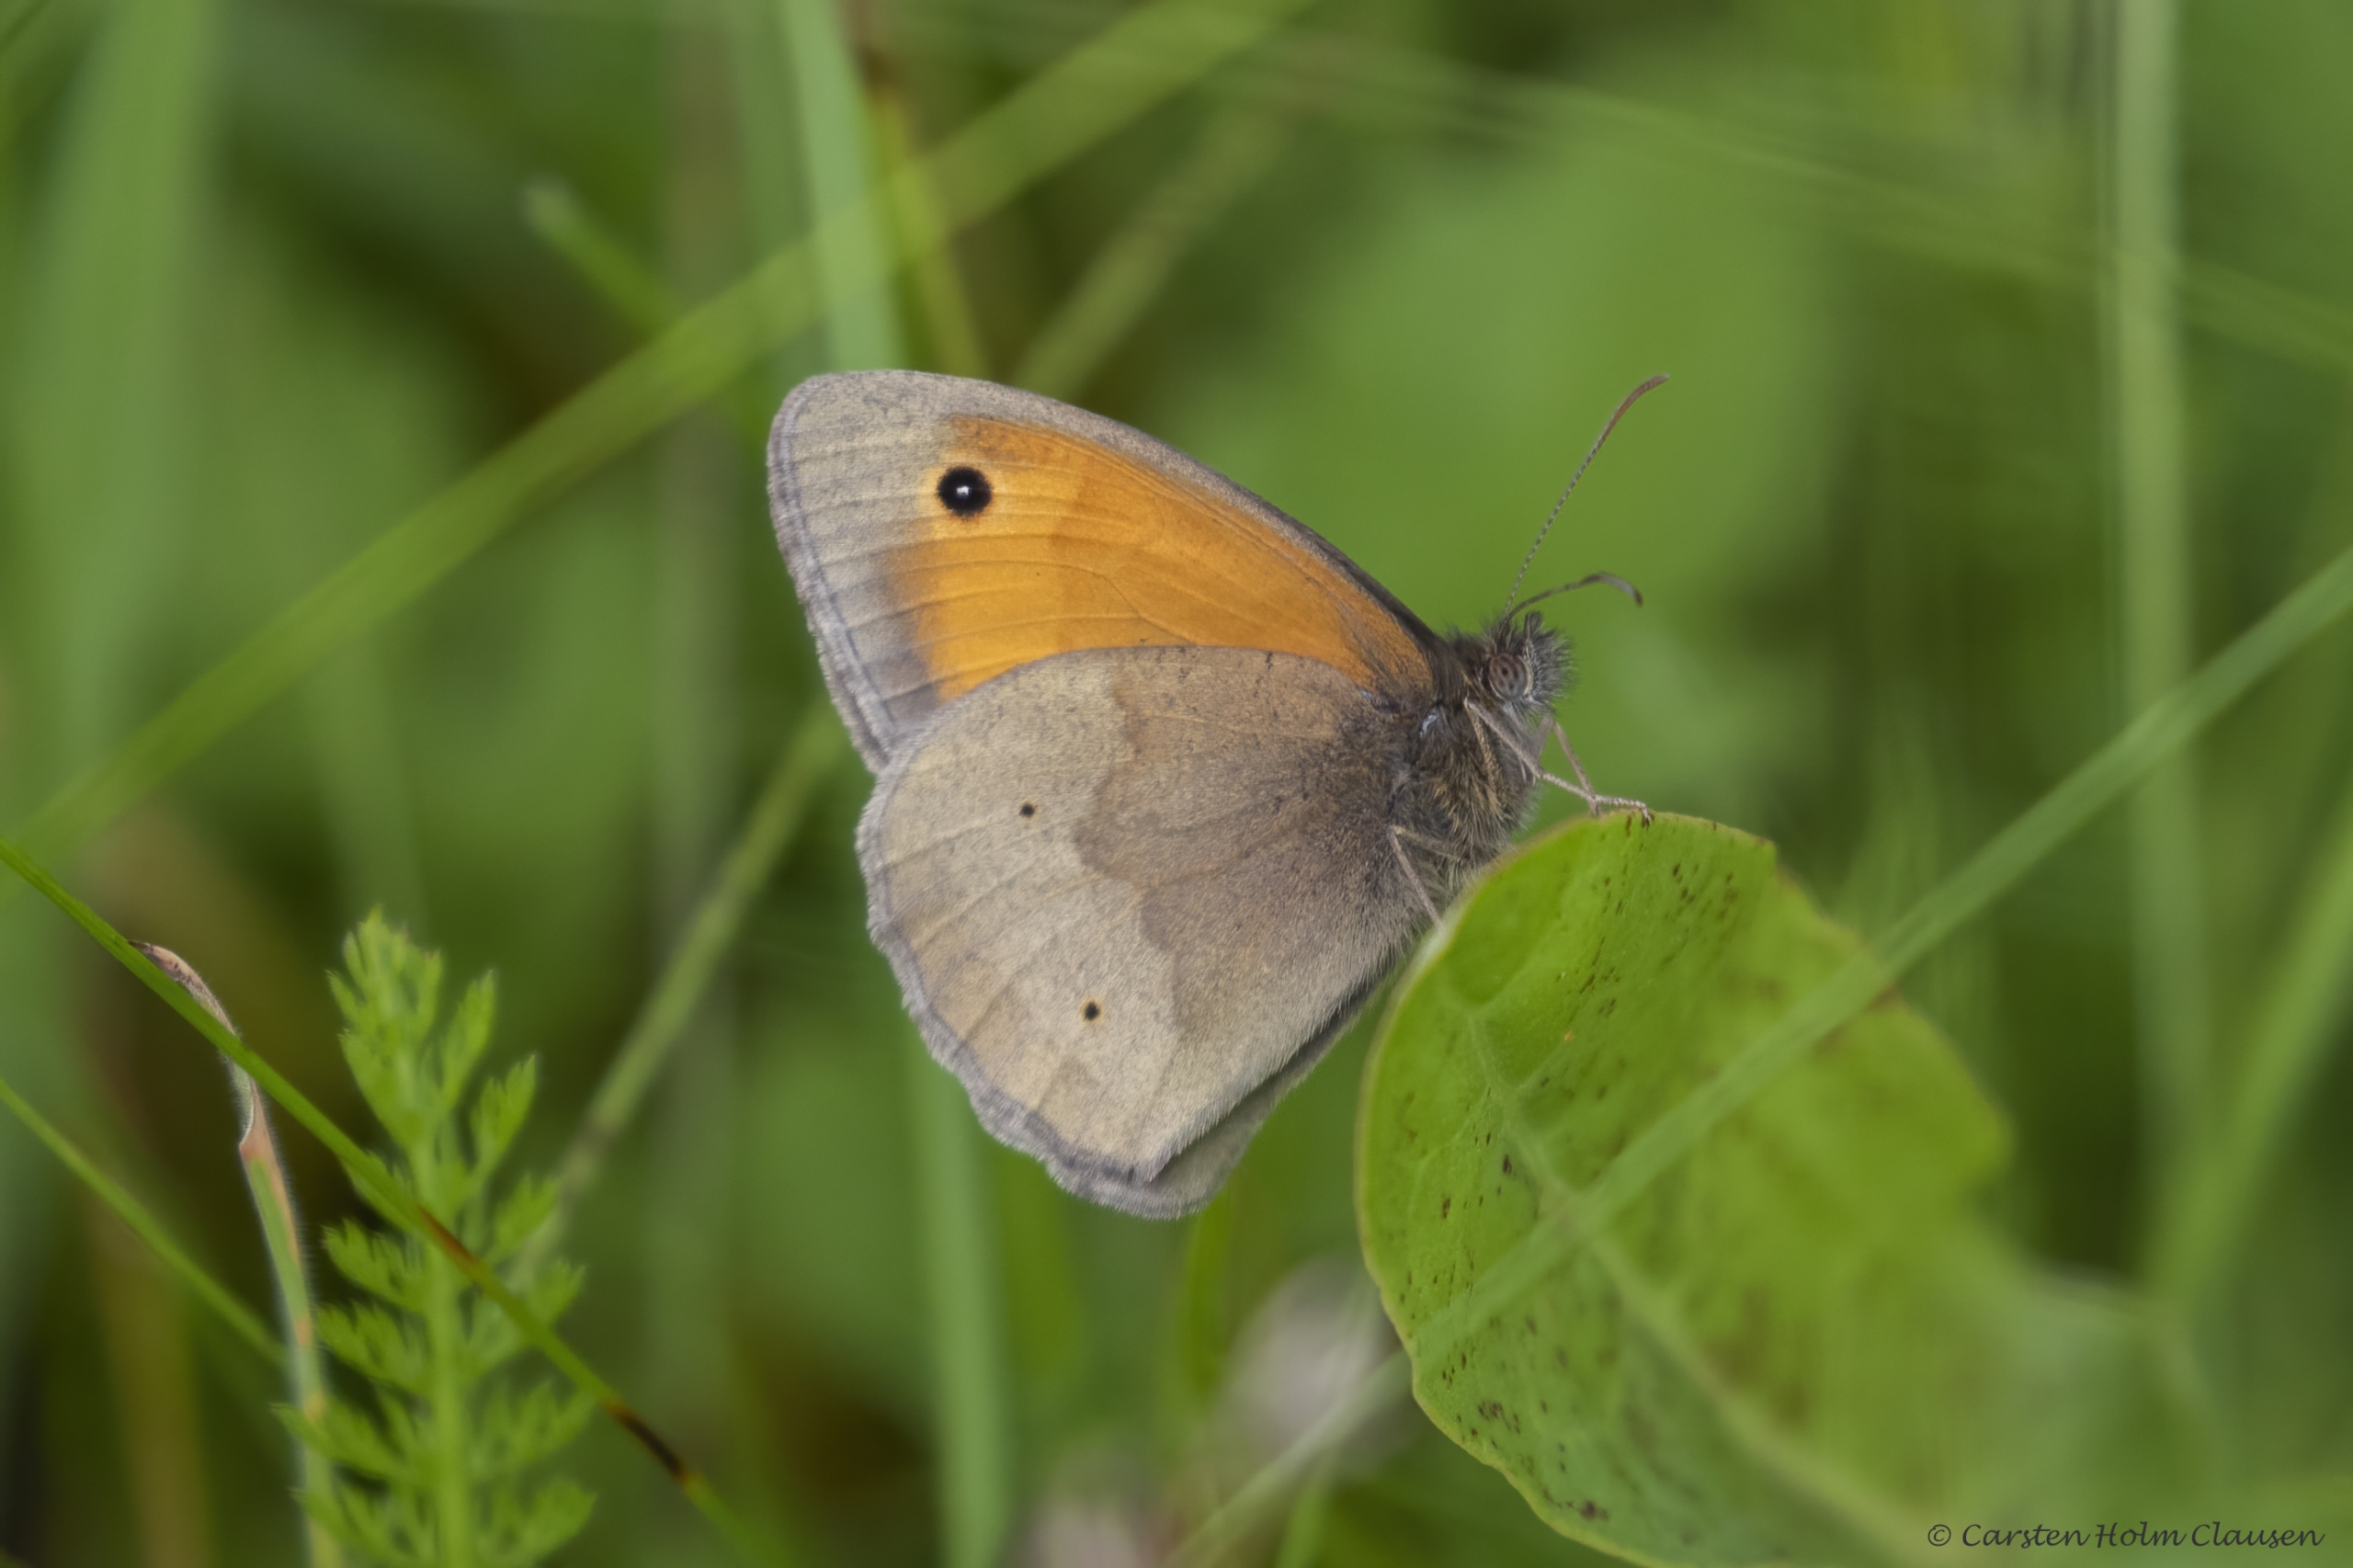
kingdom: Animalia
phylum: Arthropoda
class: Insecta
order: Lepidoptera
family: Nymphalidae
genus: Maniola
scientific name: Maniola jurtina
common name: Græsrandøje
